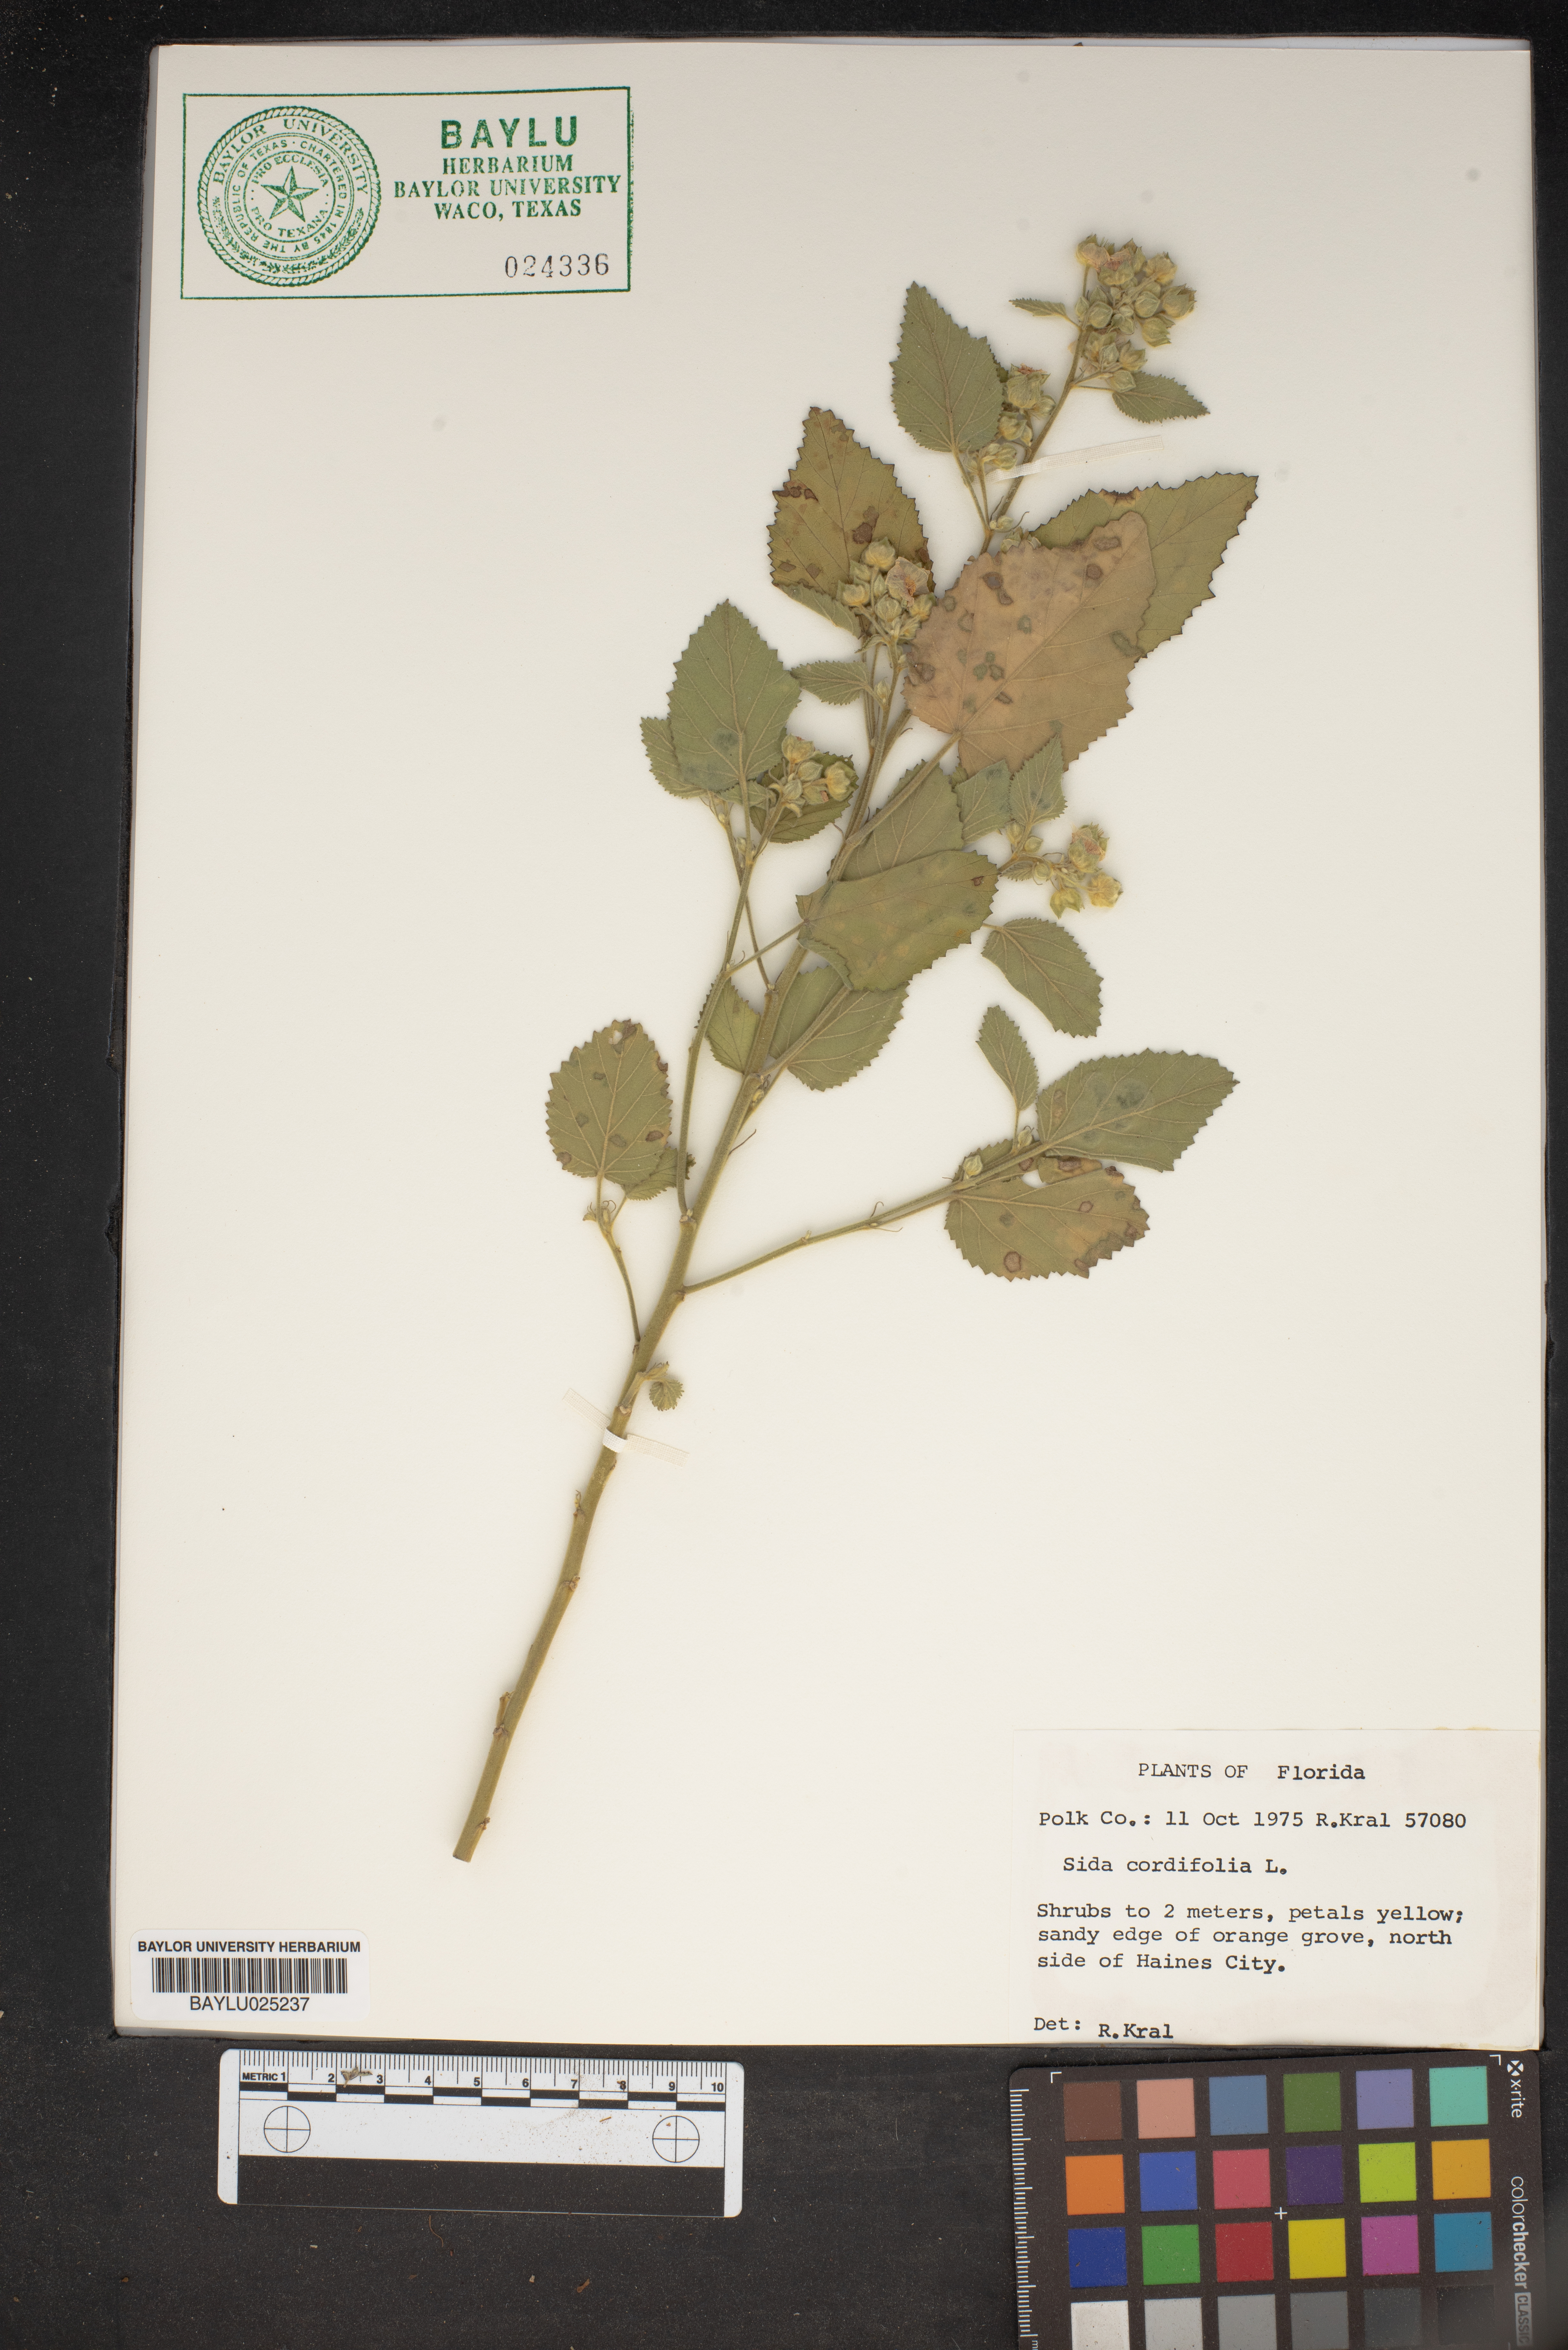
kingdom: Plantae
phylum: Tracheophyta
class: Magnoliopsida
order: Malvales
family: Malvaceae
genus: Sida
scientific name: Sida cordifolia
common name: Ilima
